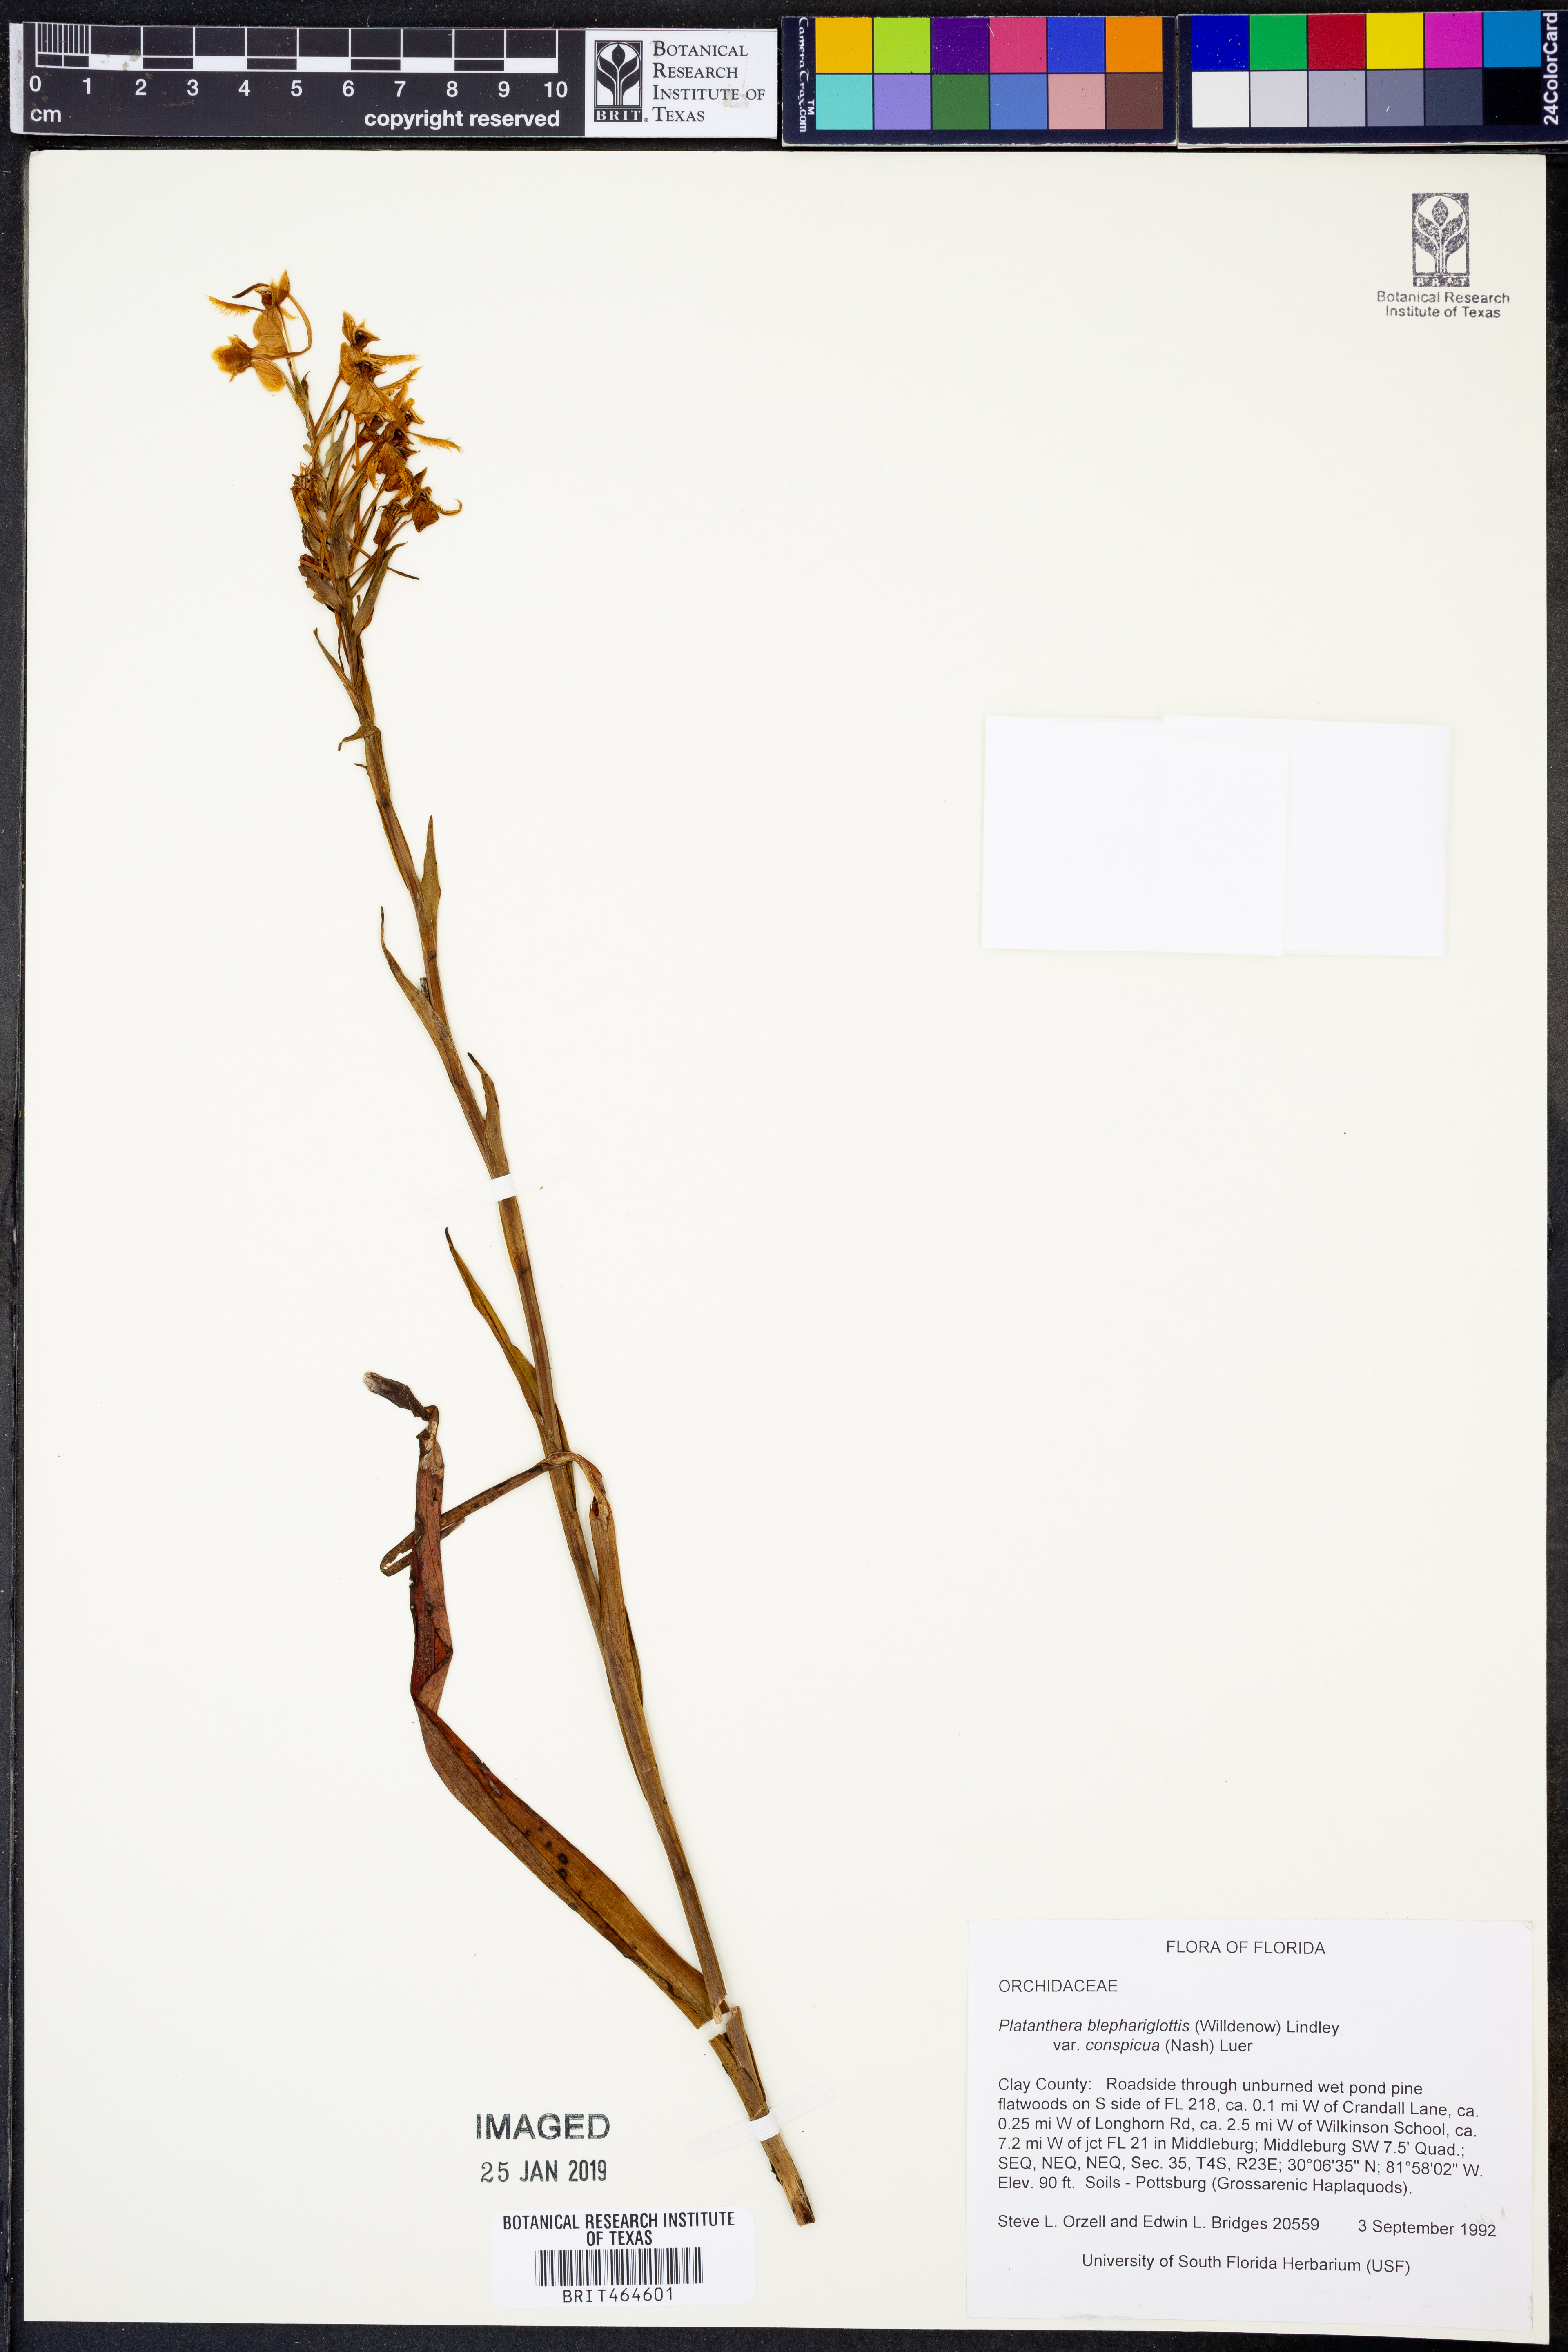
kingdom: Plantae
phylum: Tracheophyta
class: Liliopsida
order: Asparagales
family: Orchidaceae
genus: Platanthera
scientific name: Platanthera blephariglottis
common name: White fringed orchid
